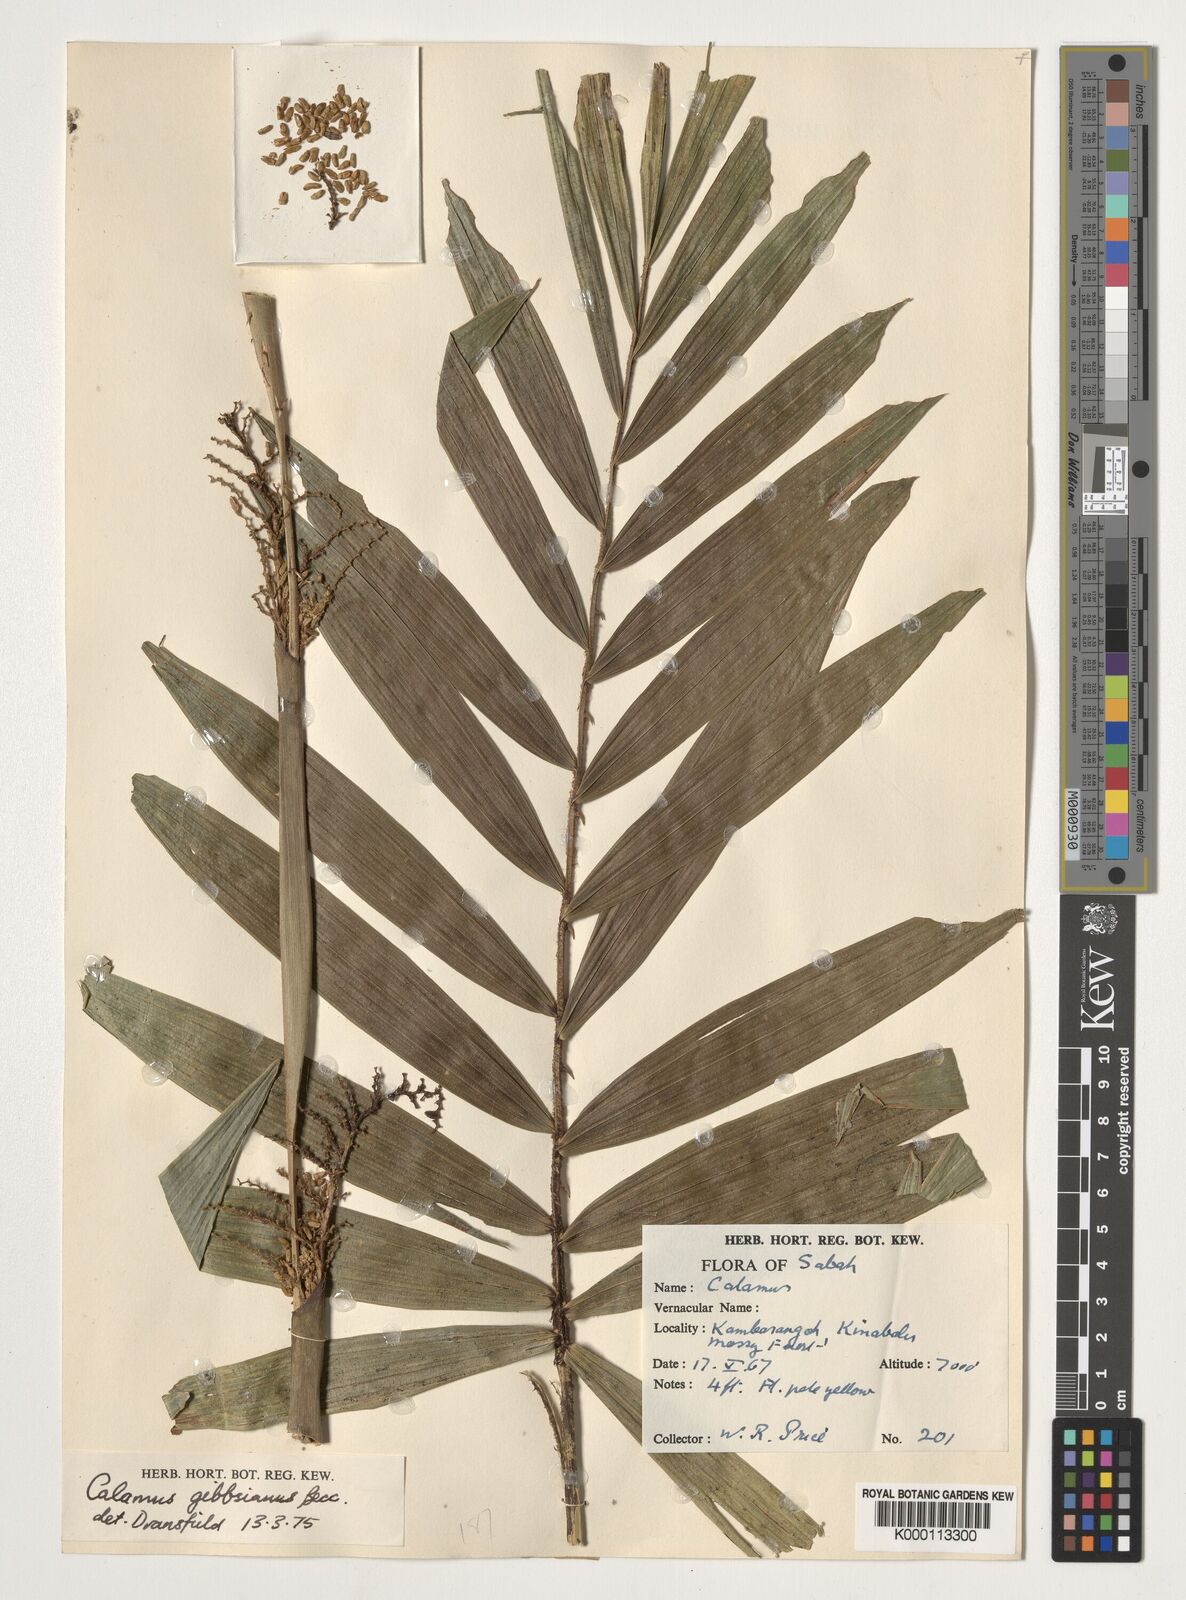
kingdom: Plantae
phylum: Tracheophyta
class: Liliopsida
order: Arecales
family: Arecaceae
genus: Calamus
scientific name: Calamus gibbsianus
